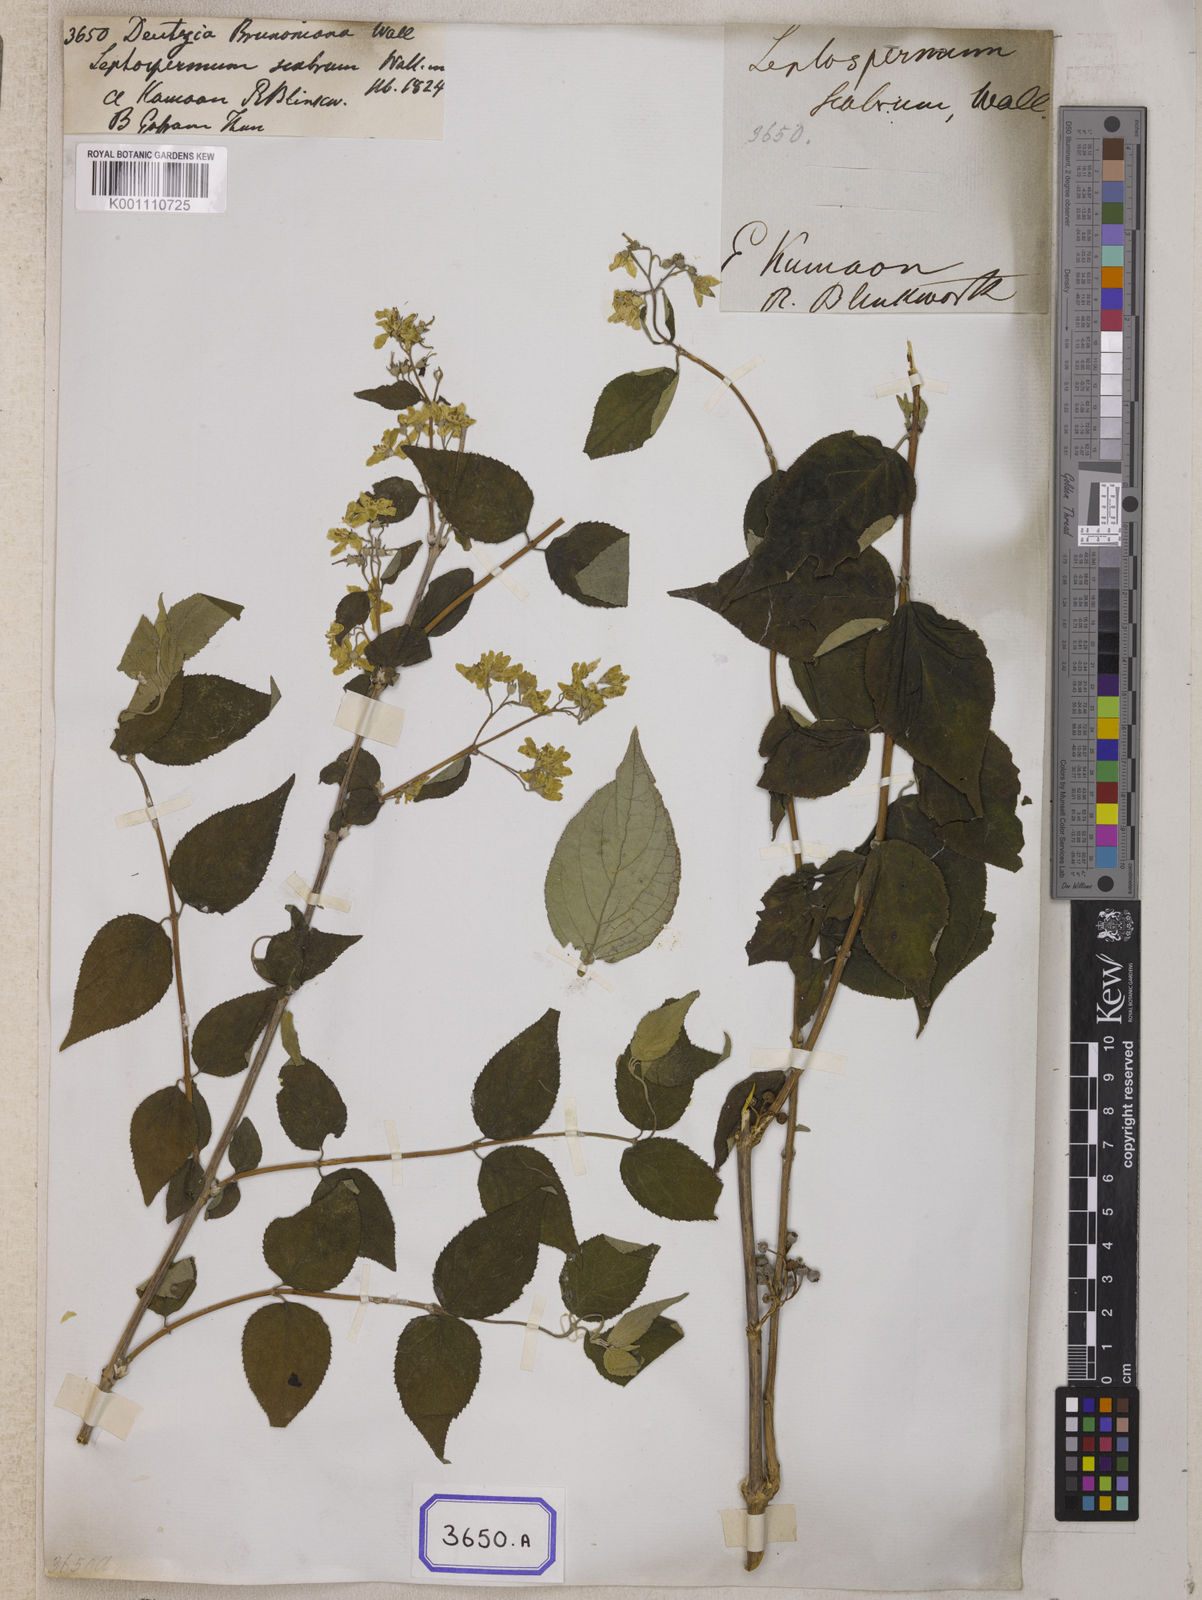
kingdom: Plantae
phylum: Tracheophyta
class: Magnoliopsida
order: Cornales
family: Hydrangeaceae
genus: Deutzia
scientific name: Deutzia
